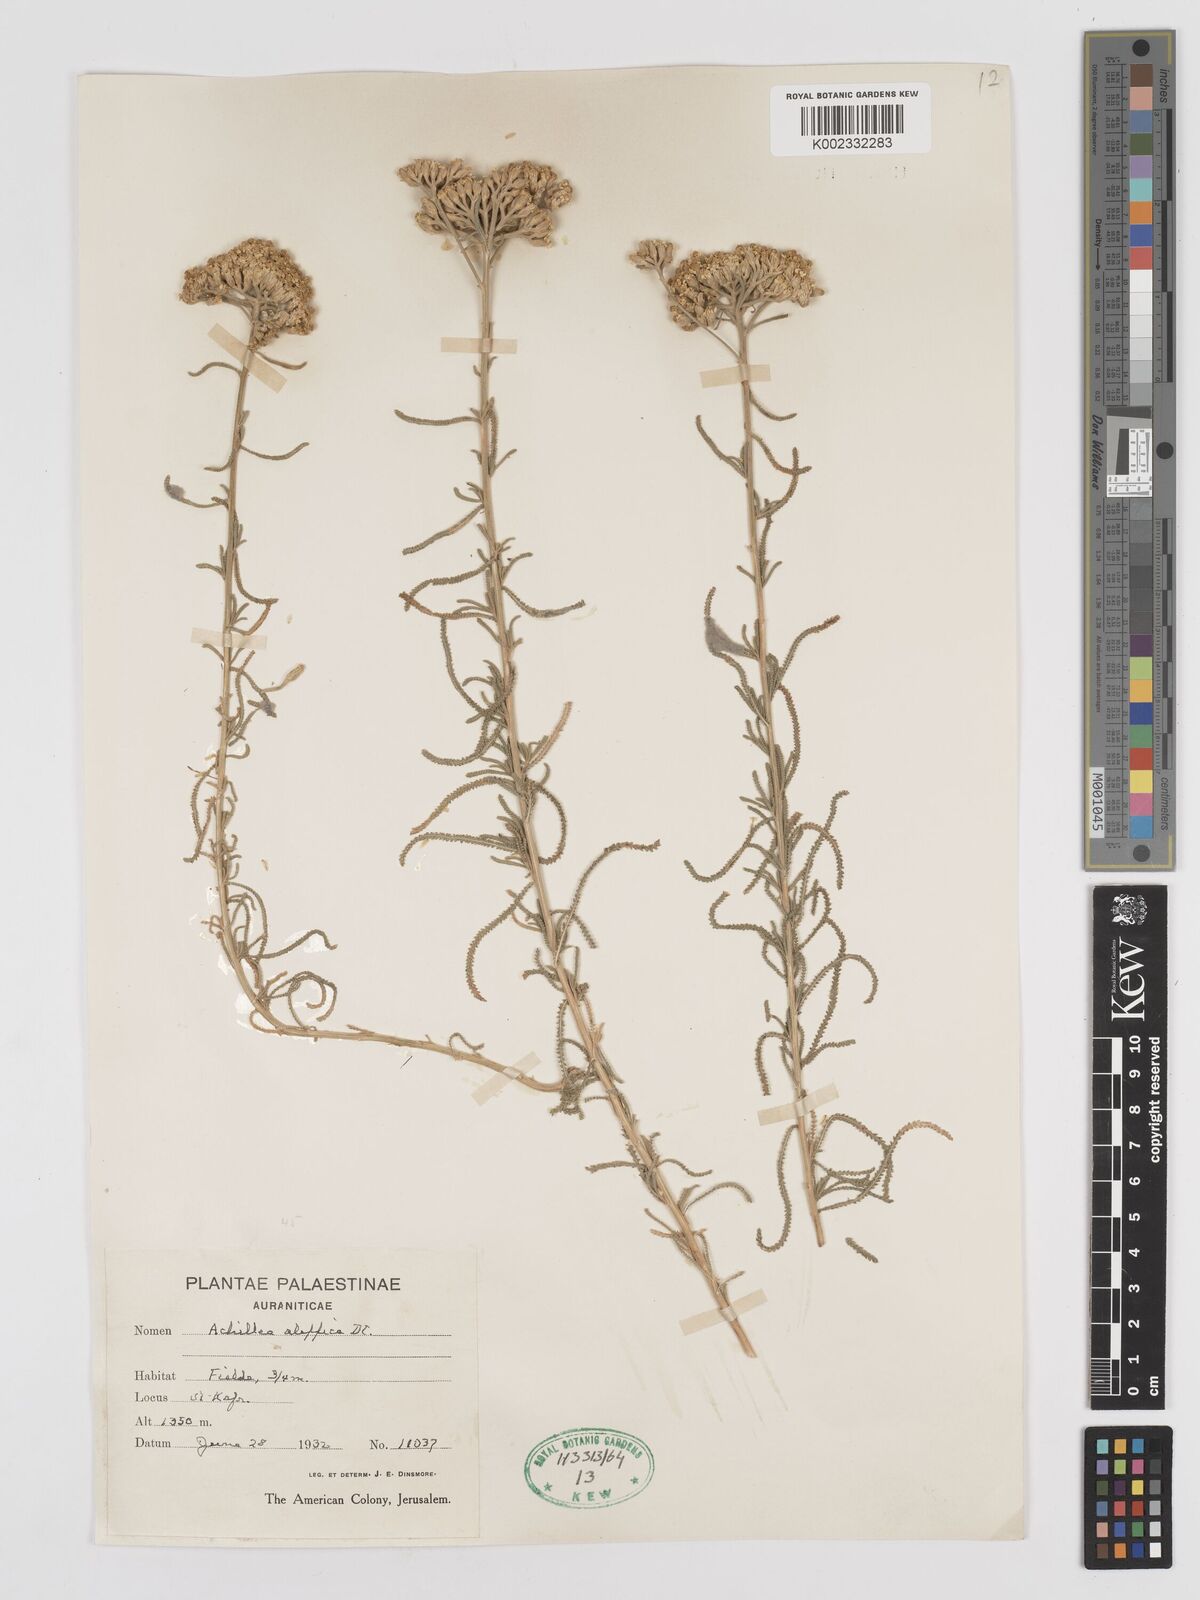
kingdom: Plantae
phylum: Tracheophyta
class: Magnoliopsida
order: Asterales
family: Asteraceae
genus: Achillea
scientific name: Achillea aleppica
